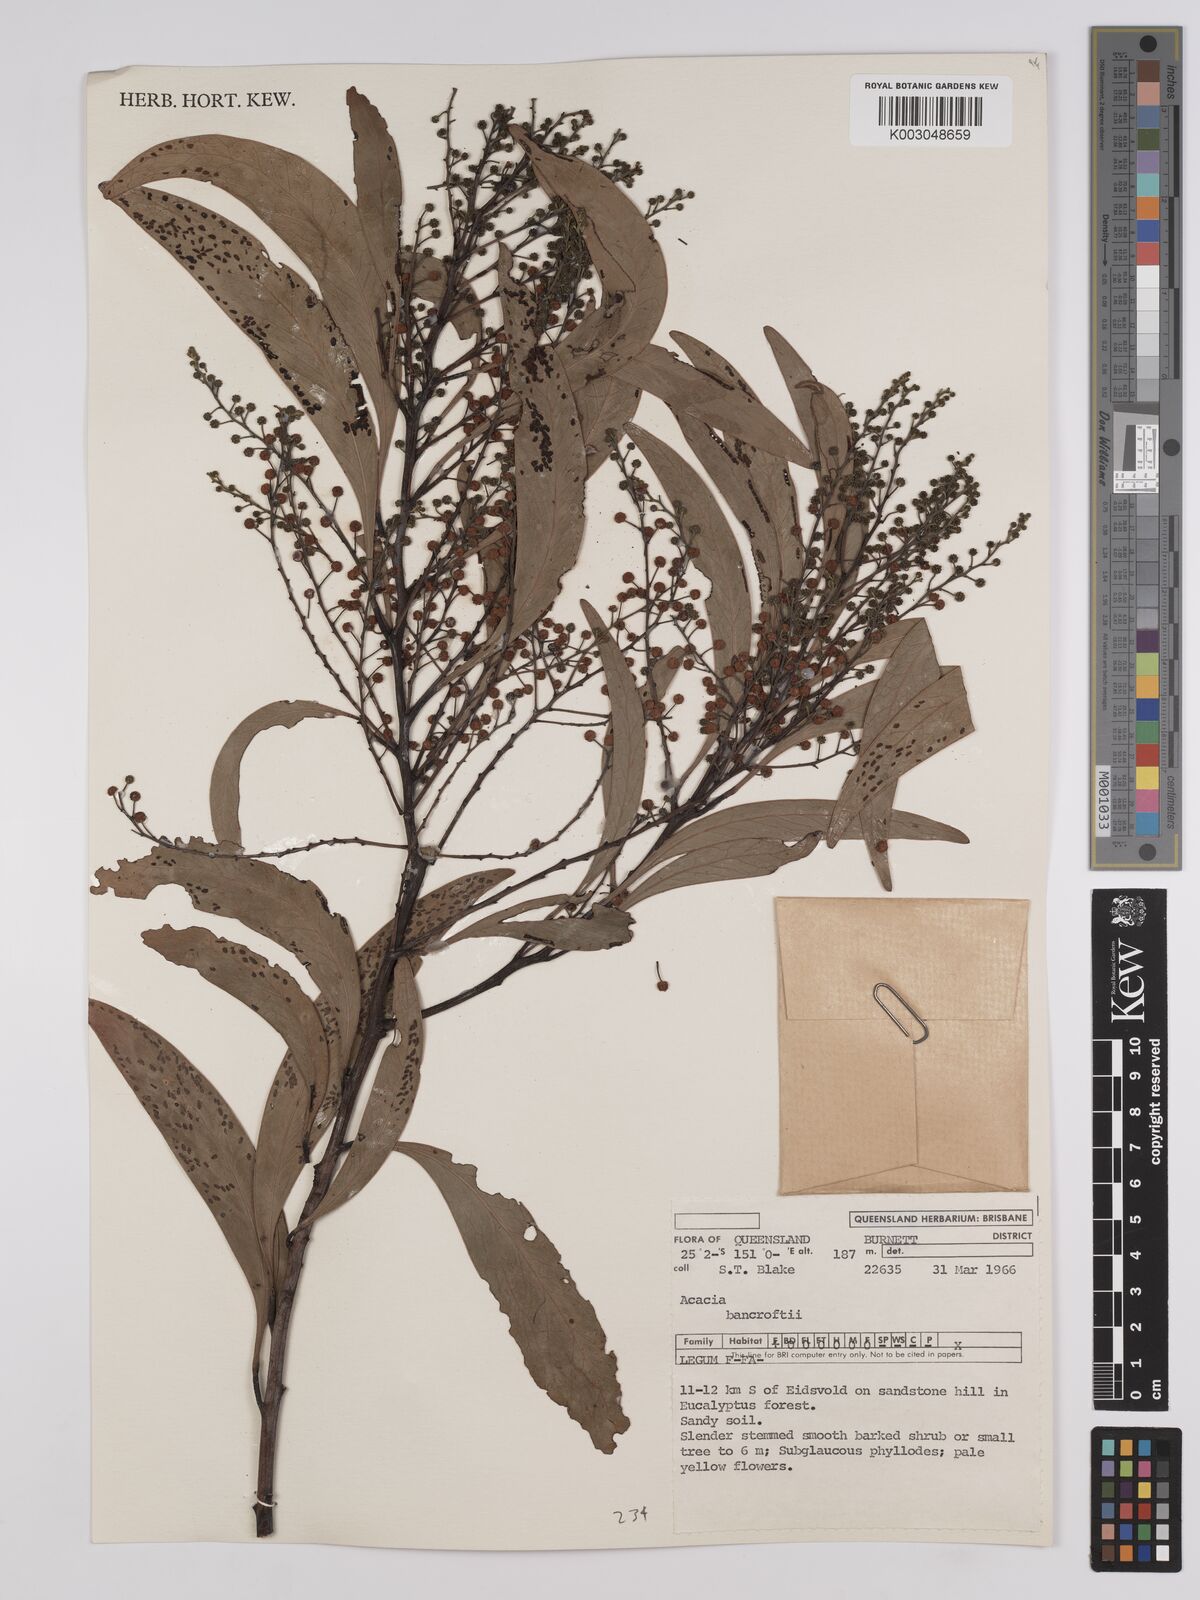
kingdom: Plantae
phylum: Tracheophyta
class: Magnoliopsida
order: Fabales
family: Fabaceae
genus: Acacia
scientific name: Acacia
